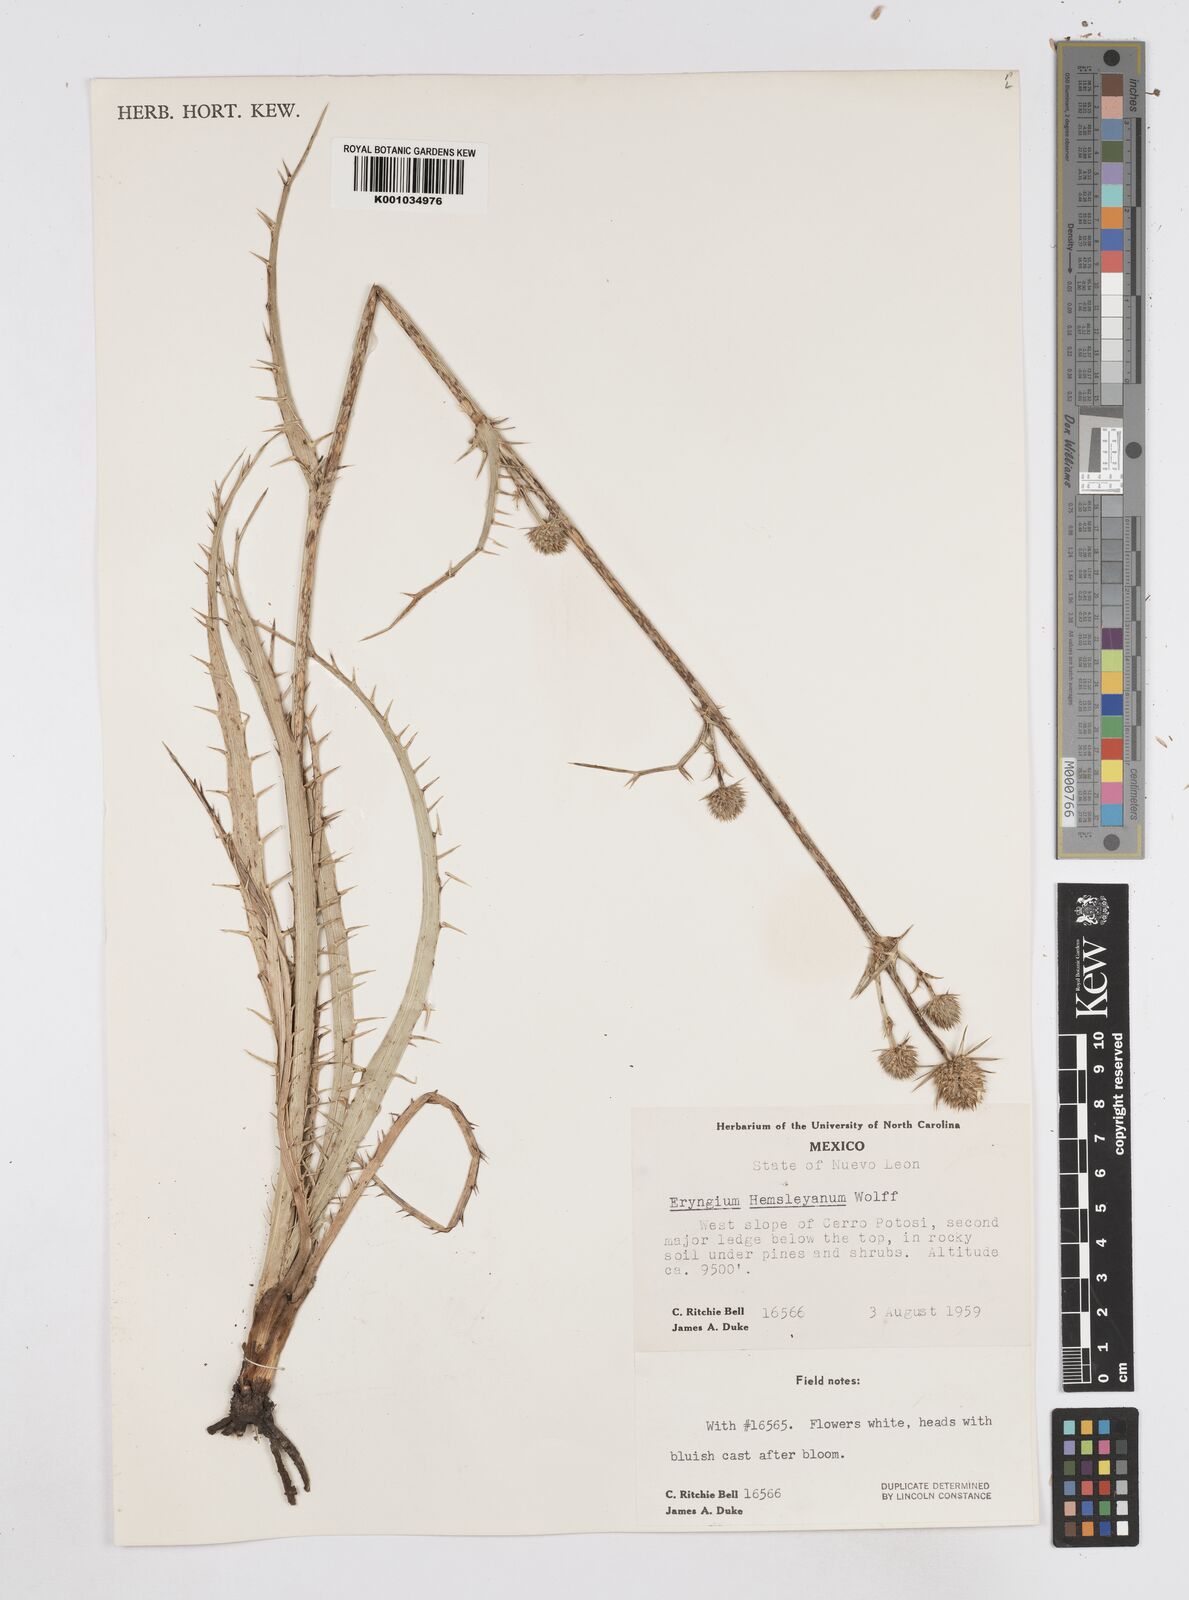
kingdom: Plantae
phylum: Tracheophyta
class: Magnoliopsida
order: Apiales
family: Apiaceae
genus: Eryngium
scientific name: Eryngium hemsleyanum
